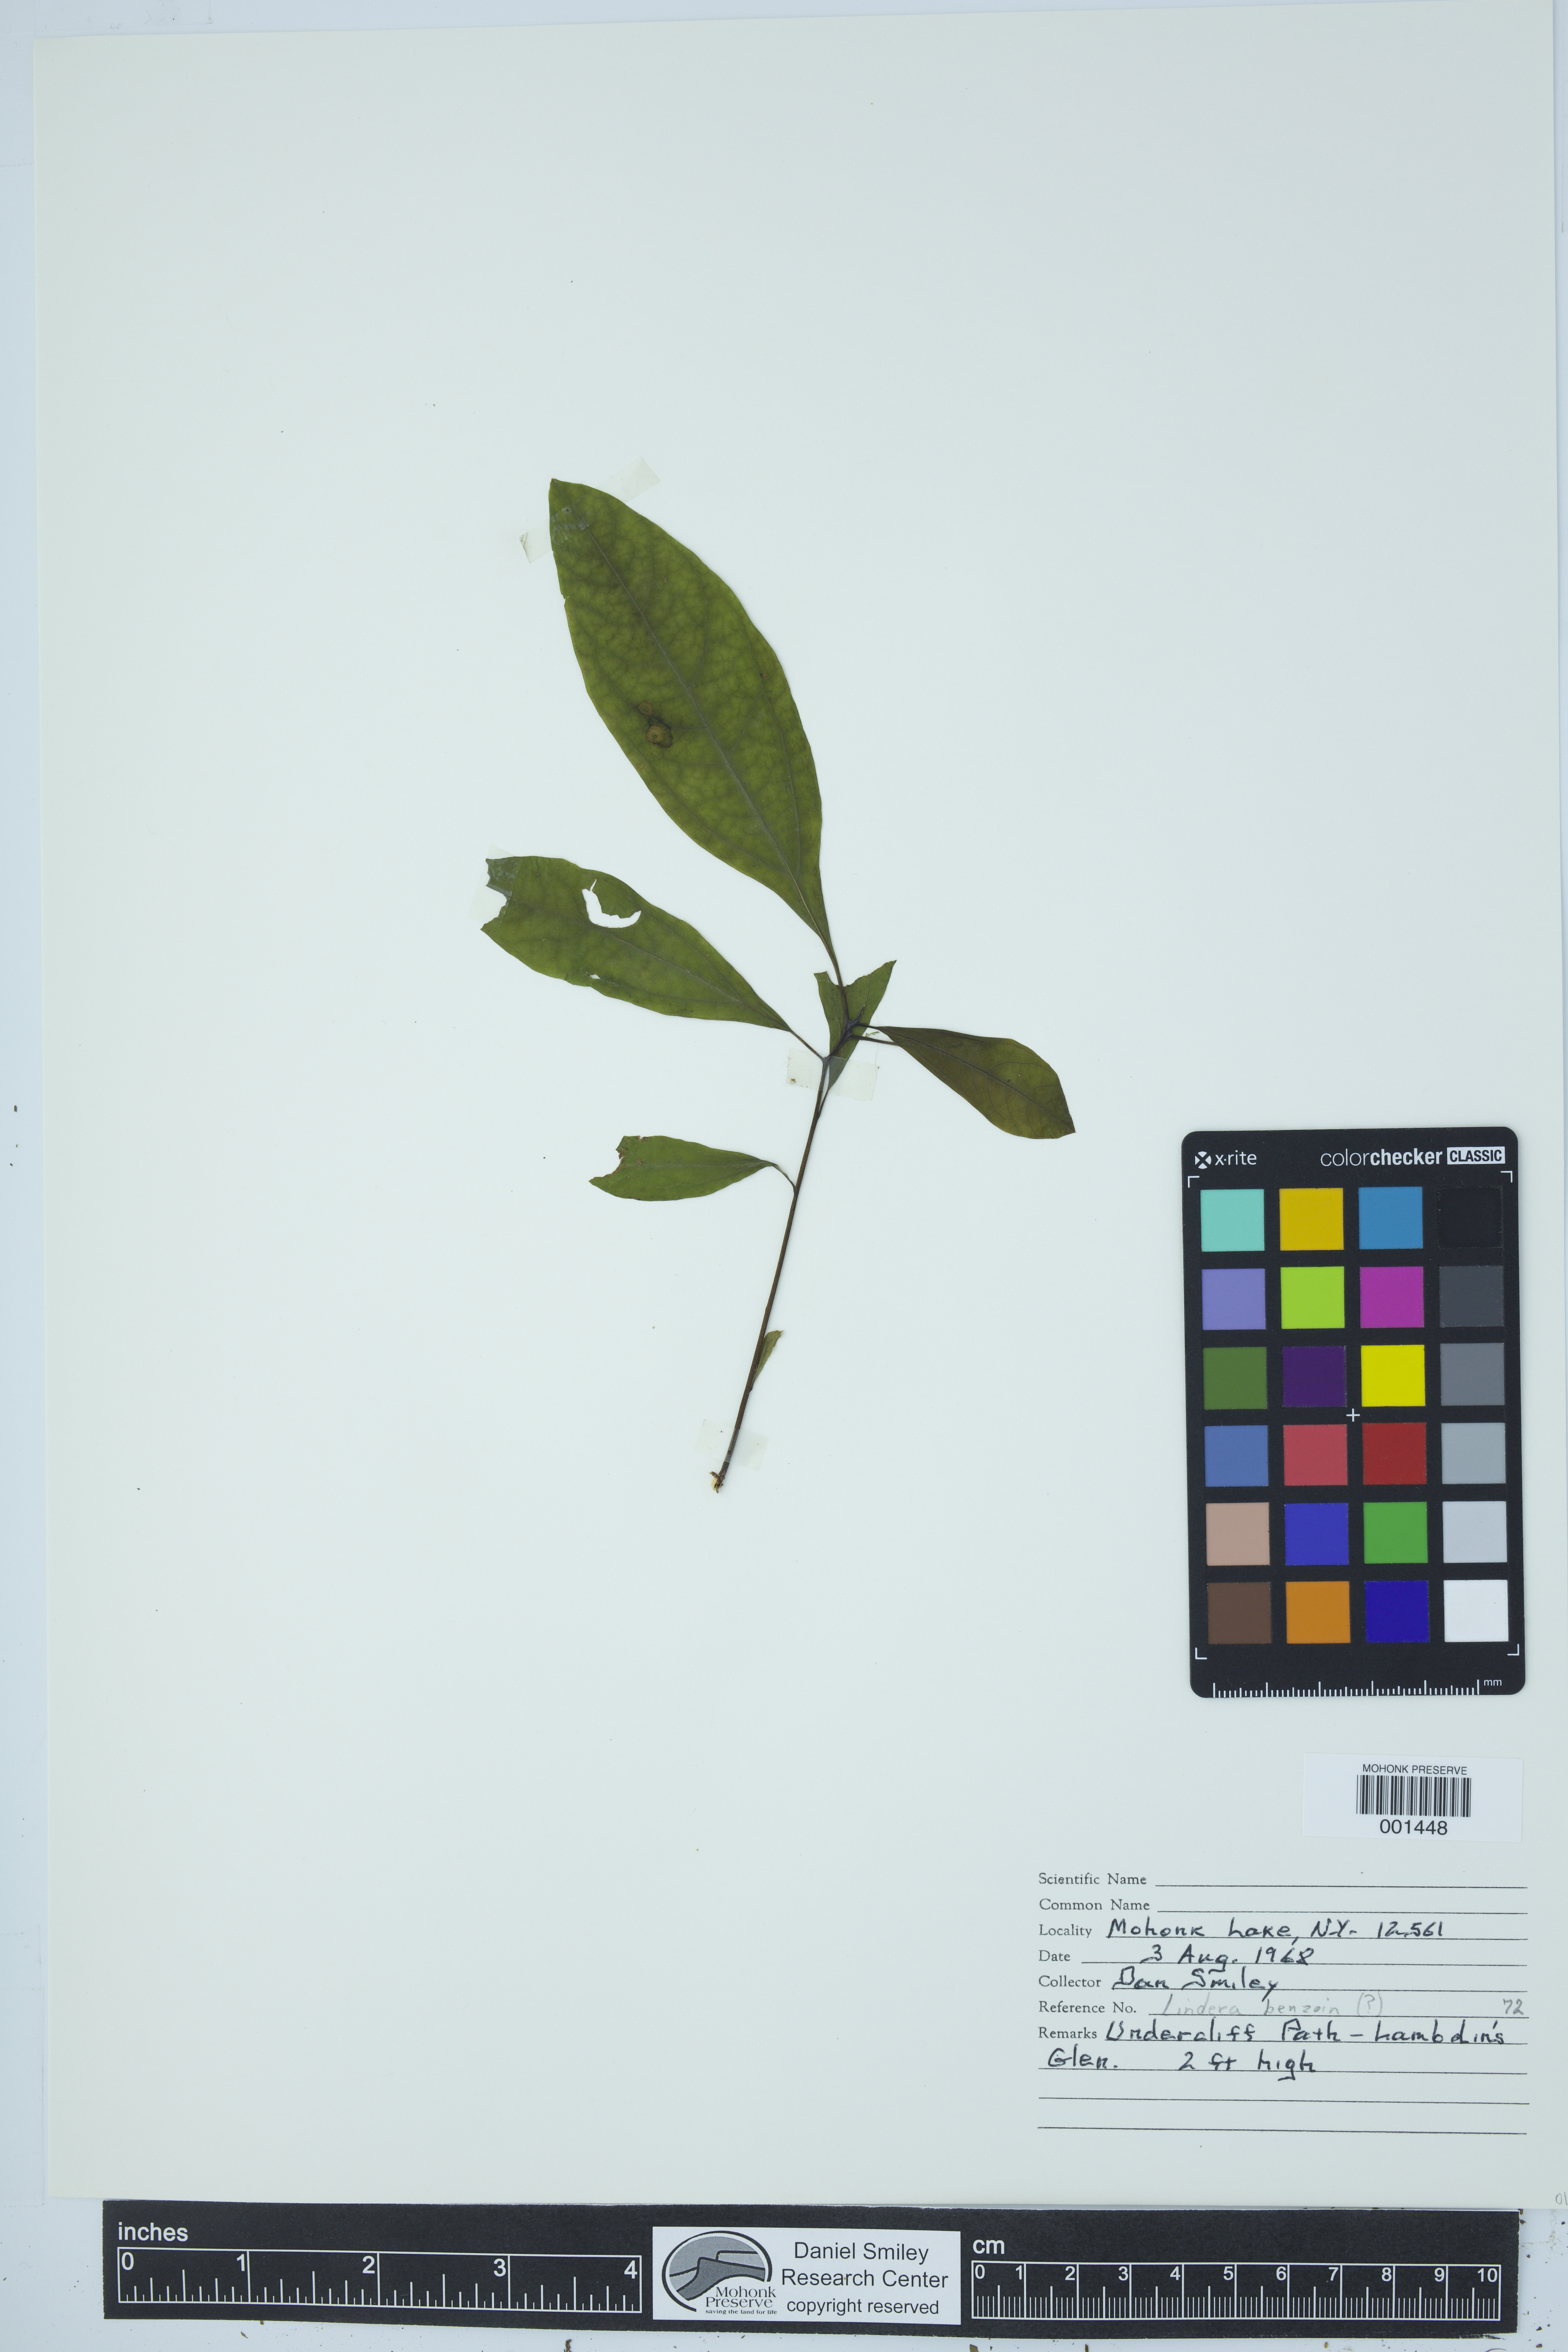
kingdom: Plantae
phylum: Tracheophyta
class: Magnoliopsida
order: Laurales
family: Lauraceae
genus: Lindera
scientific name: Lindera benzoin
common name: Spicebush
